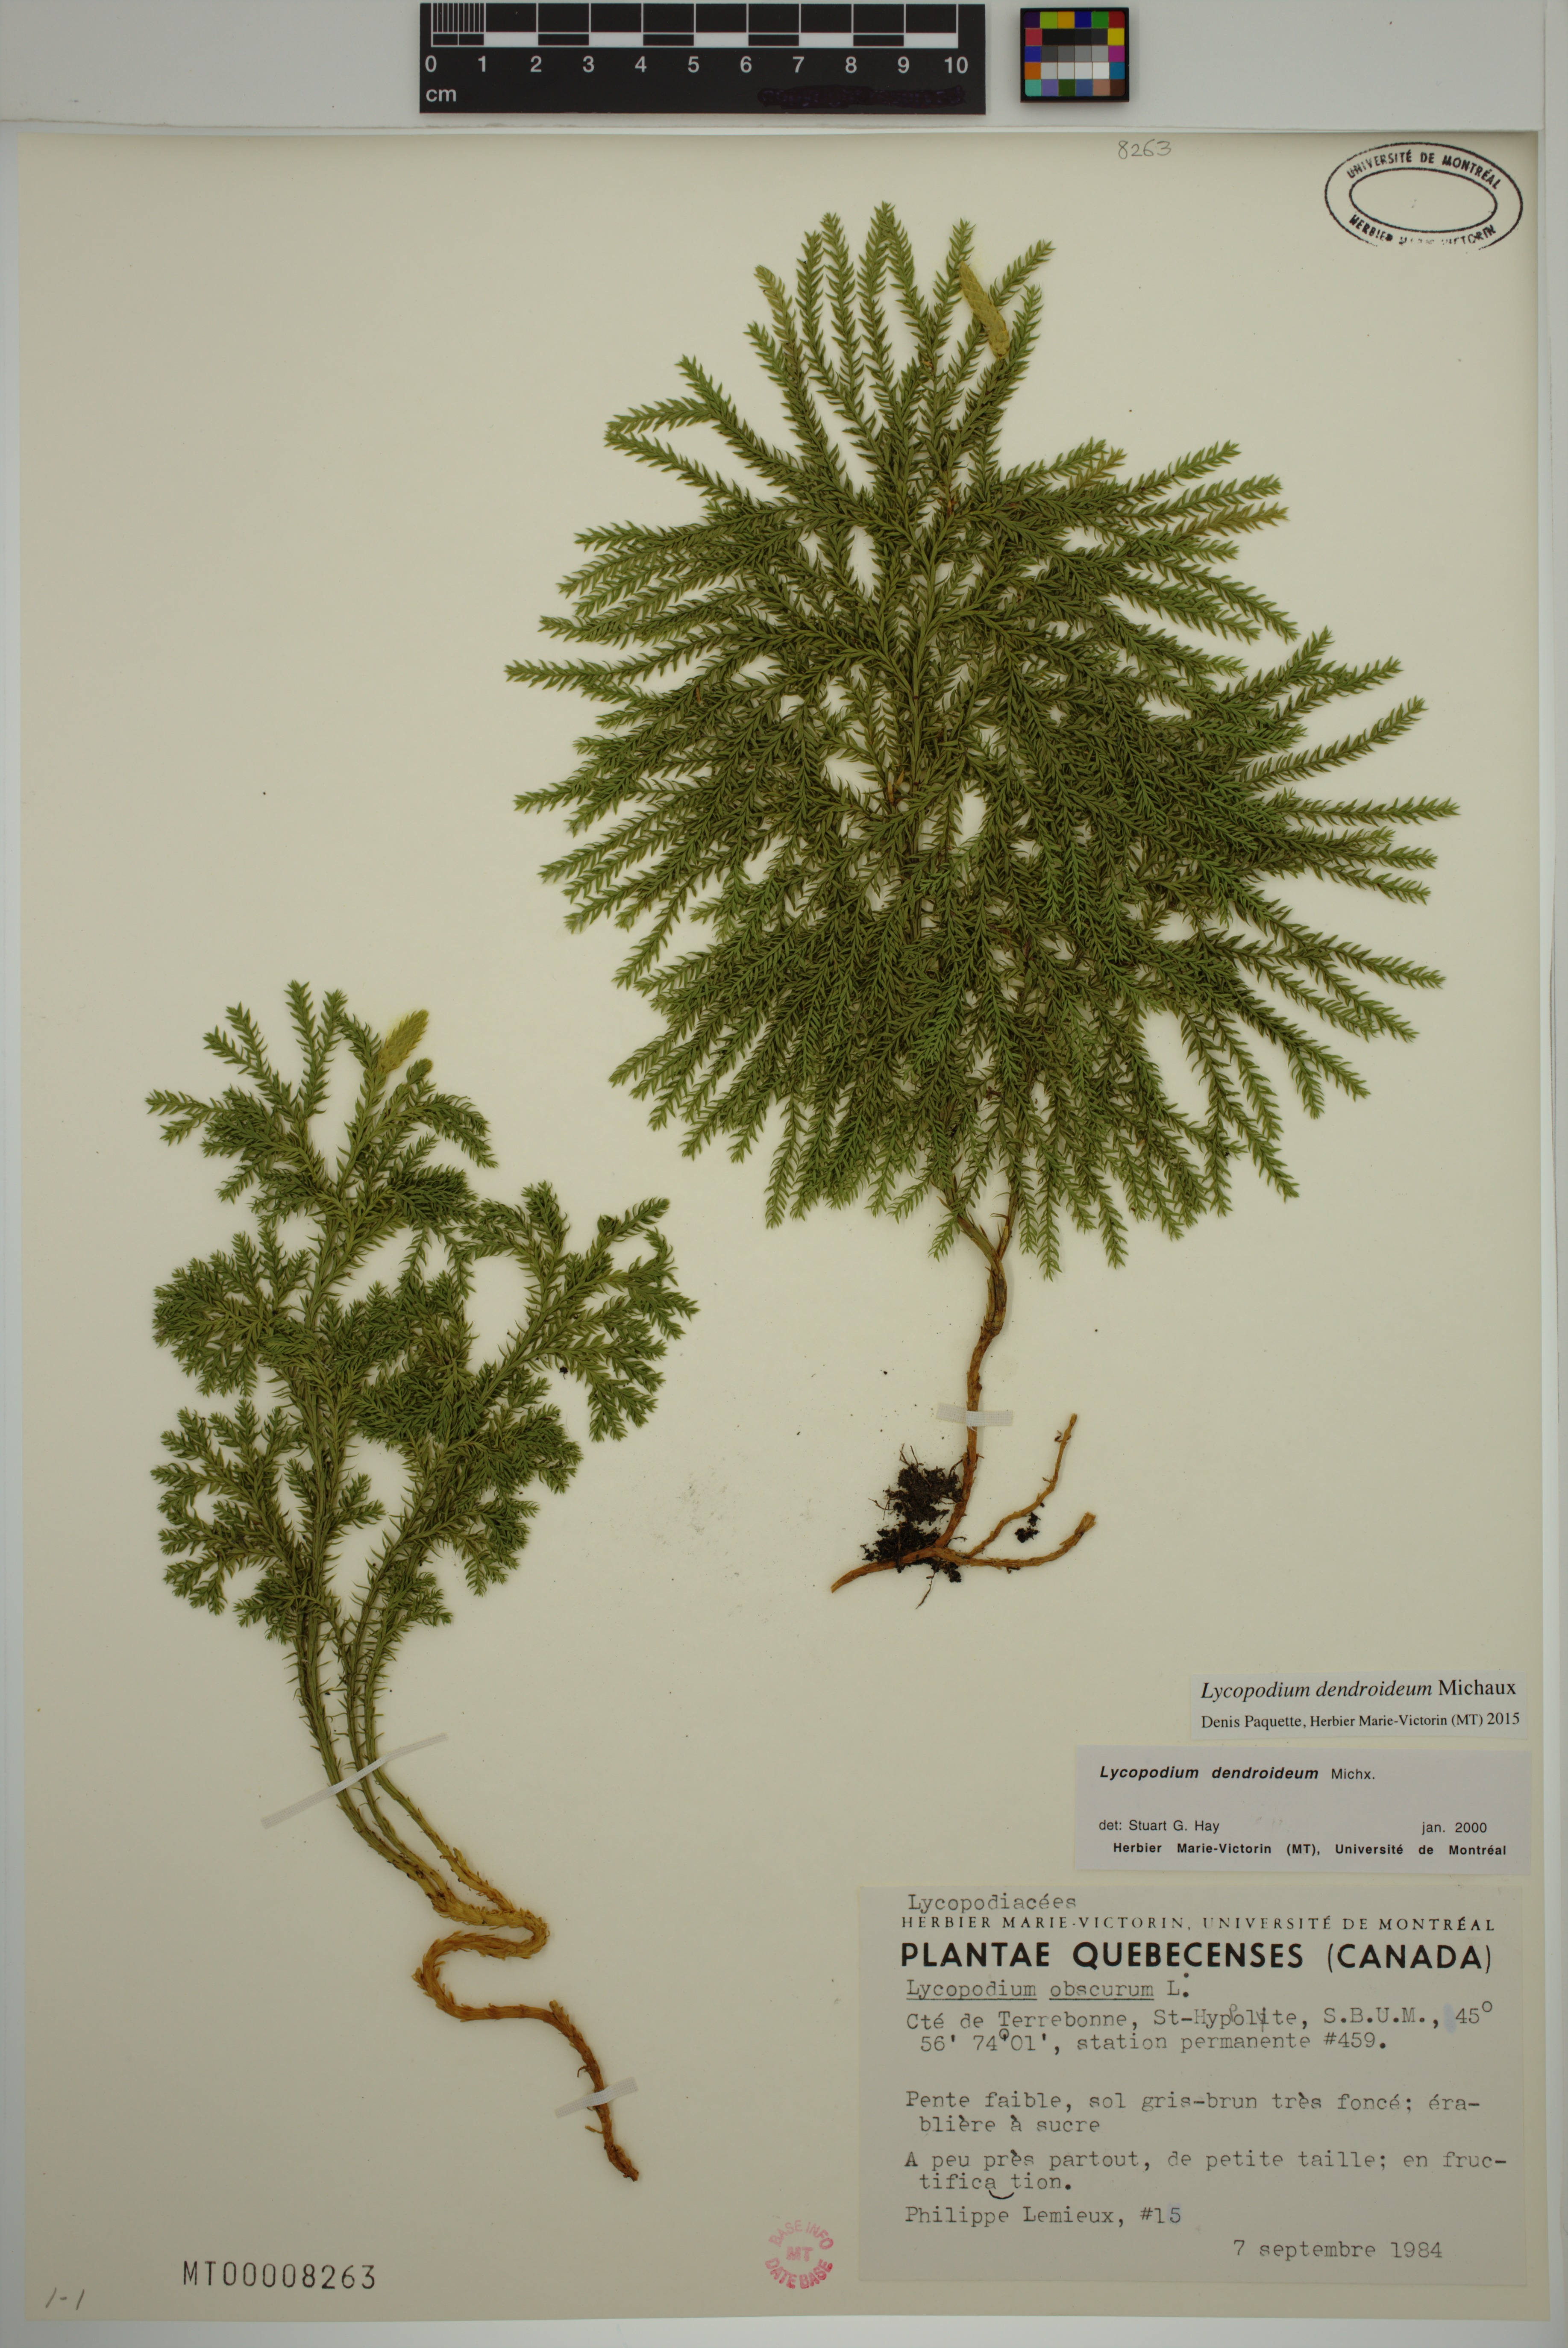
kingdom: Plantae
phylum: Tracheophyta
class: Lycopodiopsida
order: Lycopodiales
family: Lycopodiaceae
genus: Dendrolycopodium
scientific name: Dendrolycopodium dendroideum
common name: Northern tree-clubmoss
